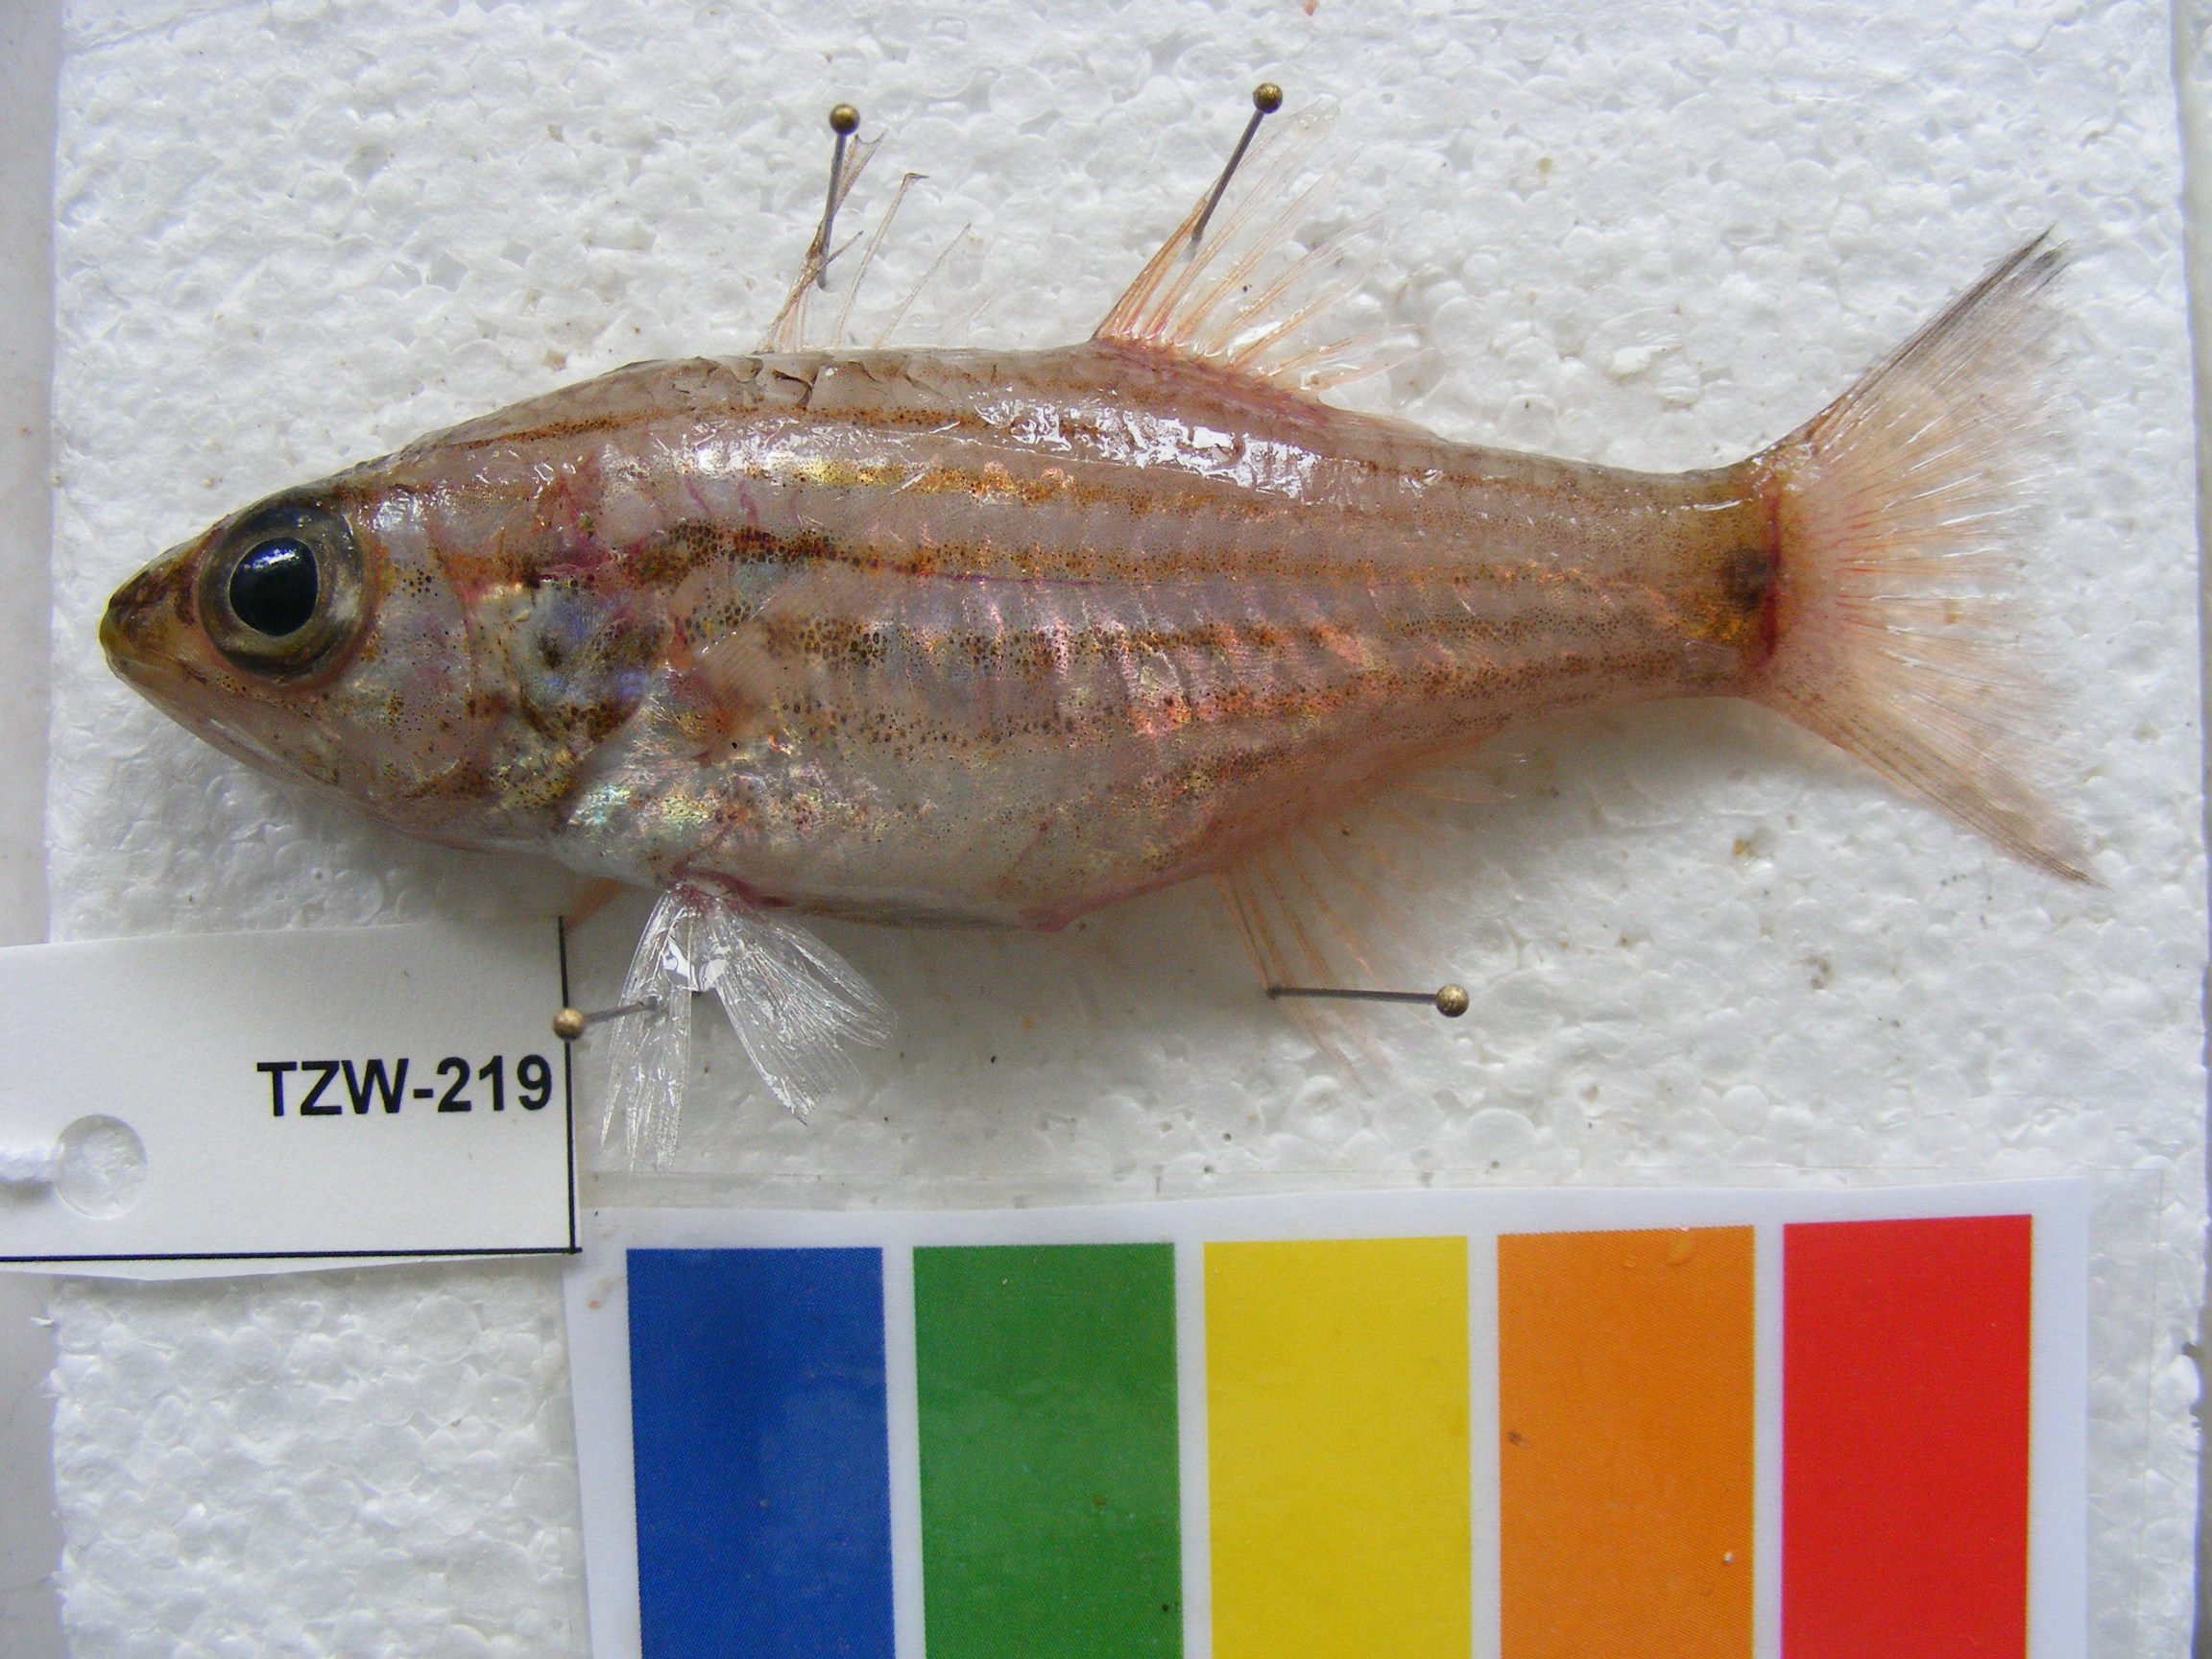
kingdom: Animalia
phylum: Chordata
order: Perciformes
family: Apogonidae
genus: Cheilodipterus
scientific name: Cheilodipterus artus
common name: Wolf cardinal
